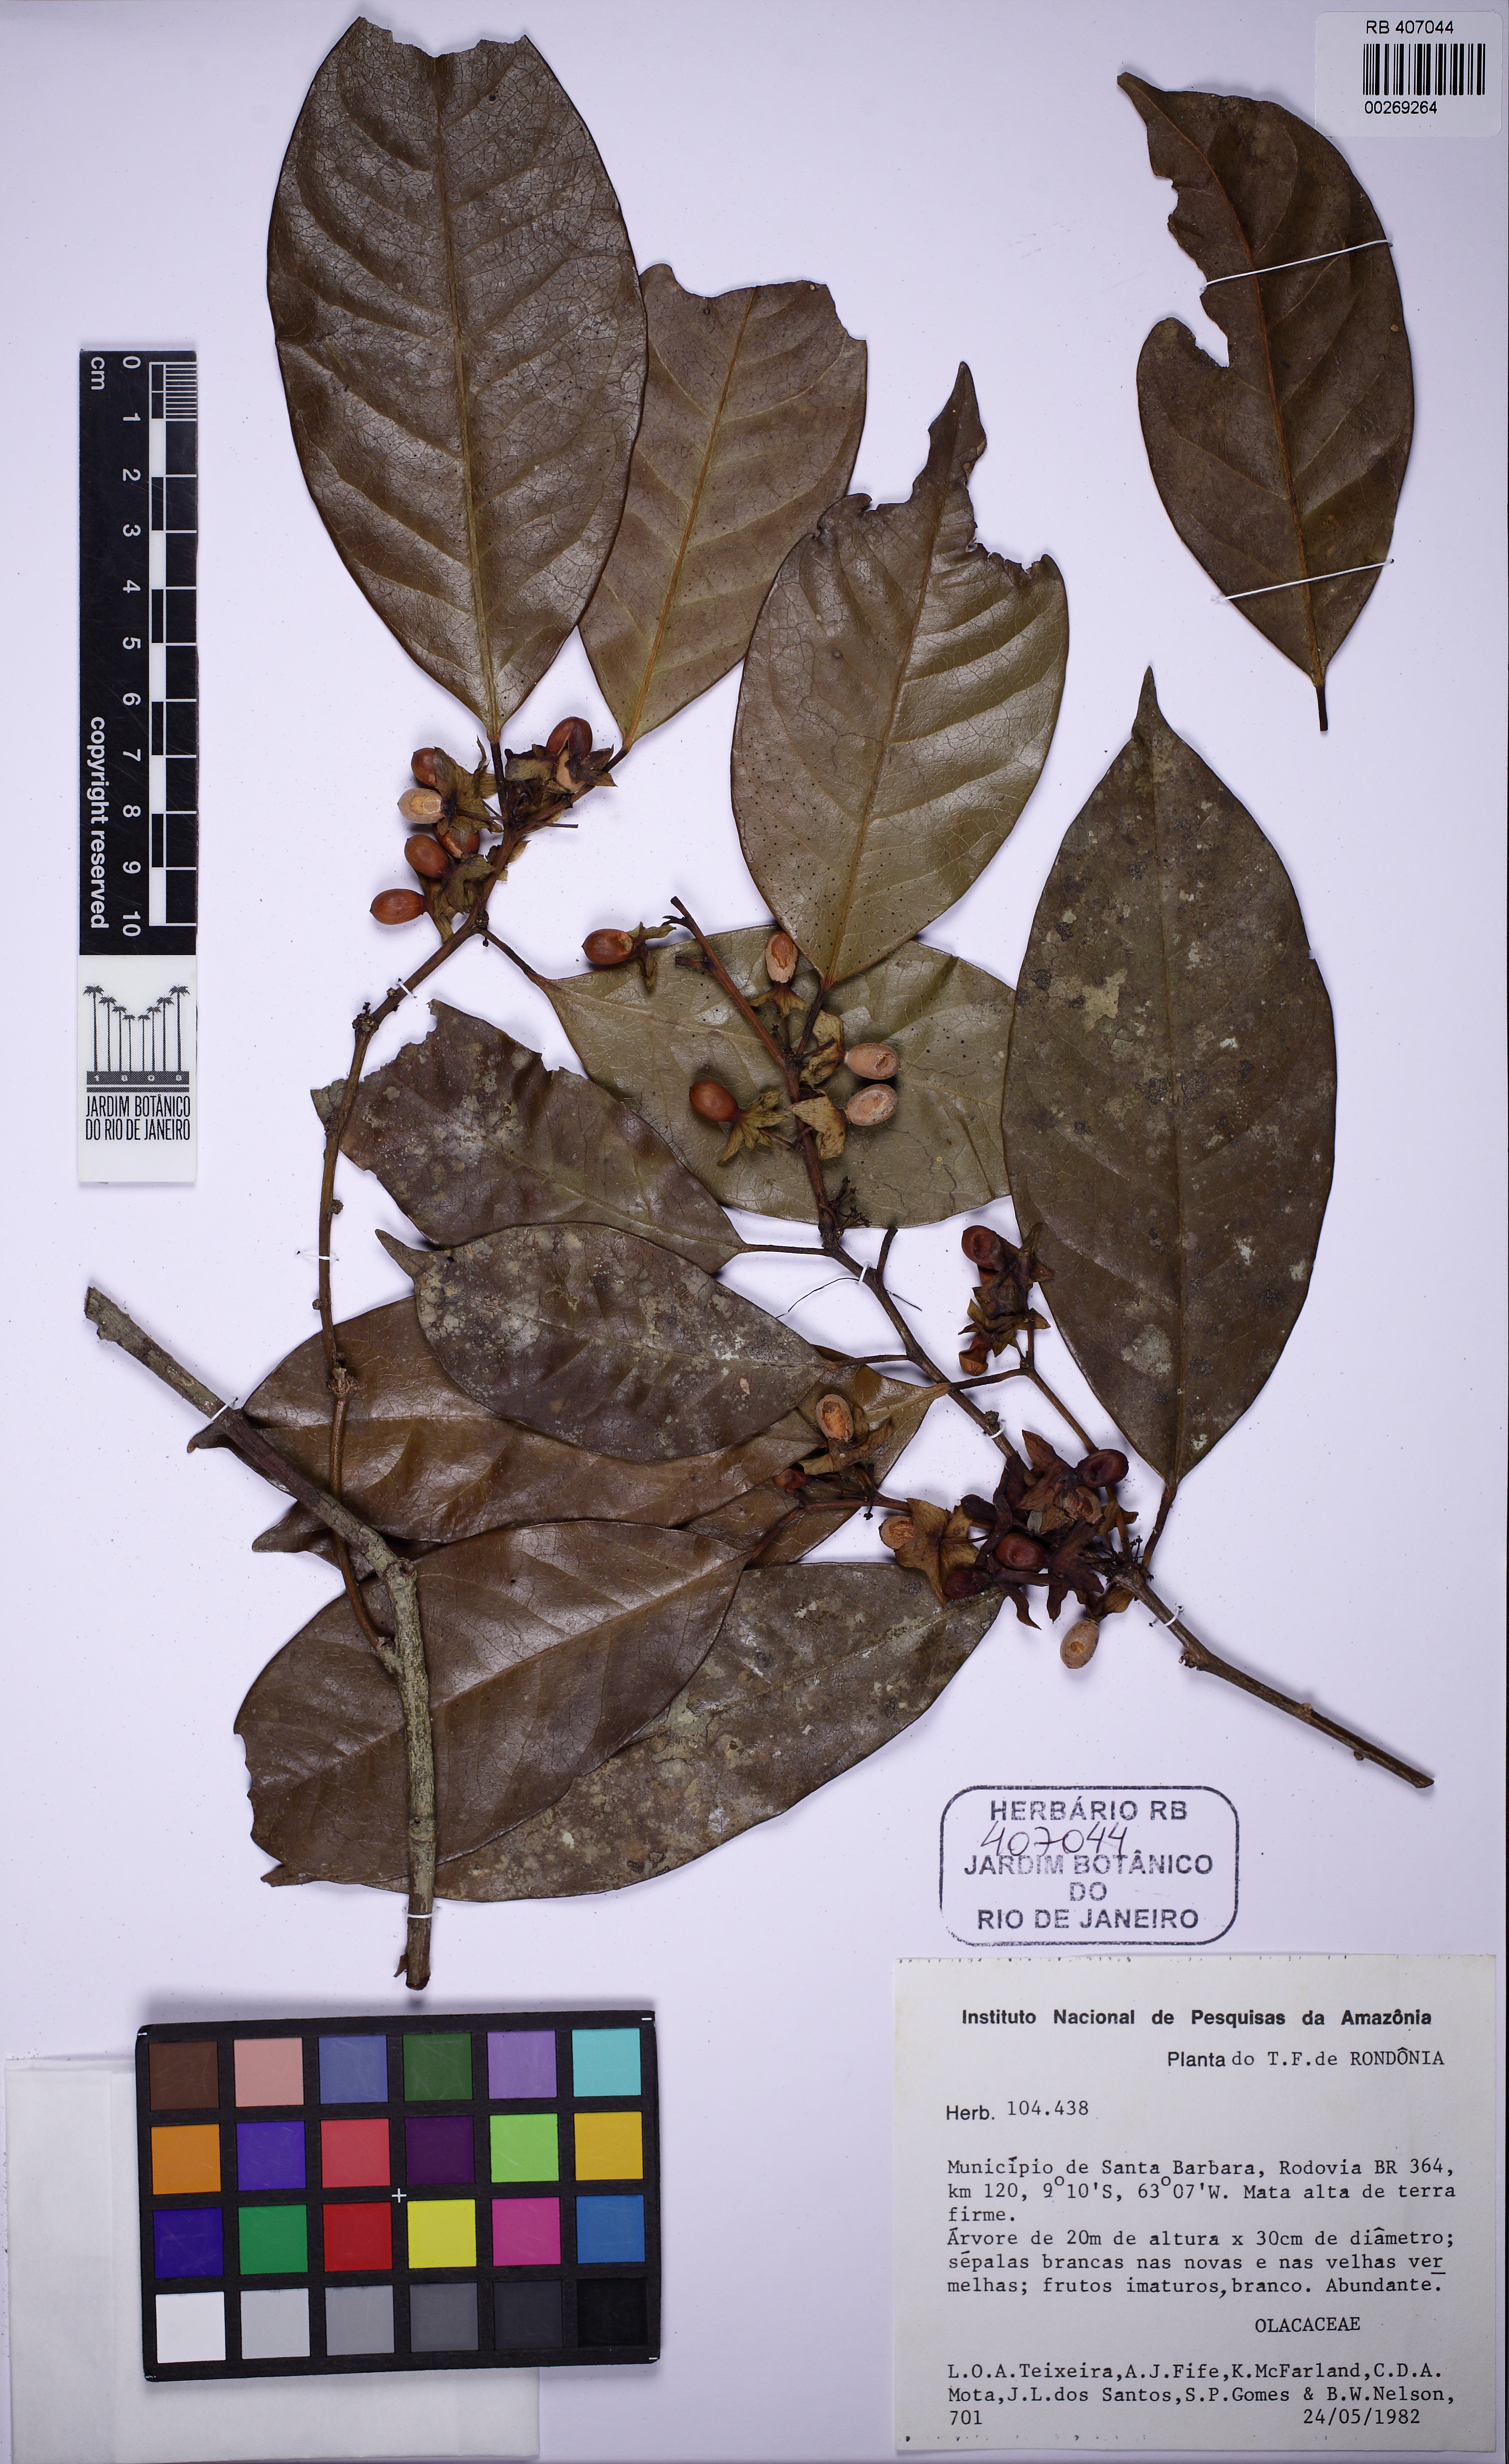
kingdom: Plantae
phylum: Tracheophyta
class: Magnoliopsida
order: Santalales
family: Erythropalaceae
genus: Heisteria
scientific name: Heisteria laxiflora
